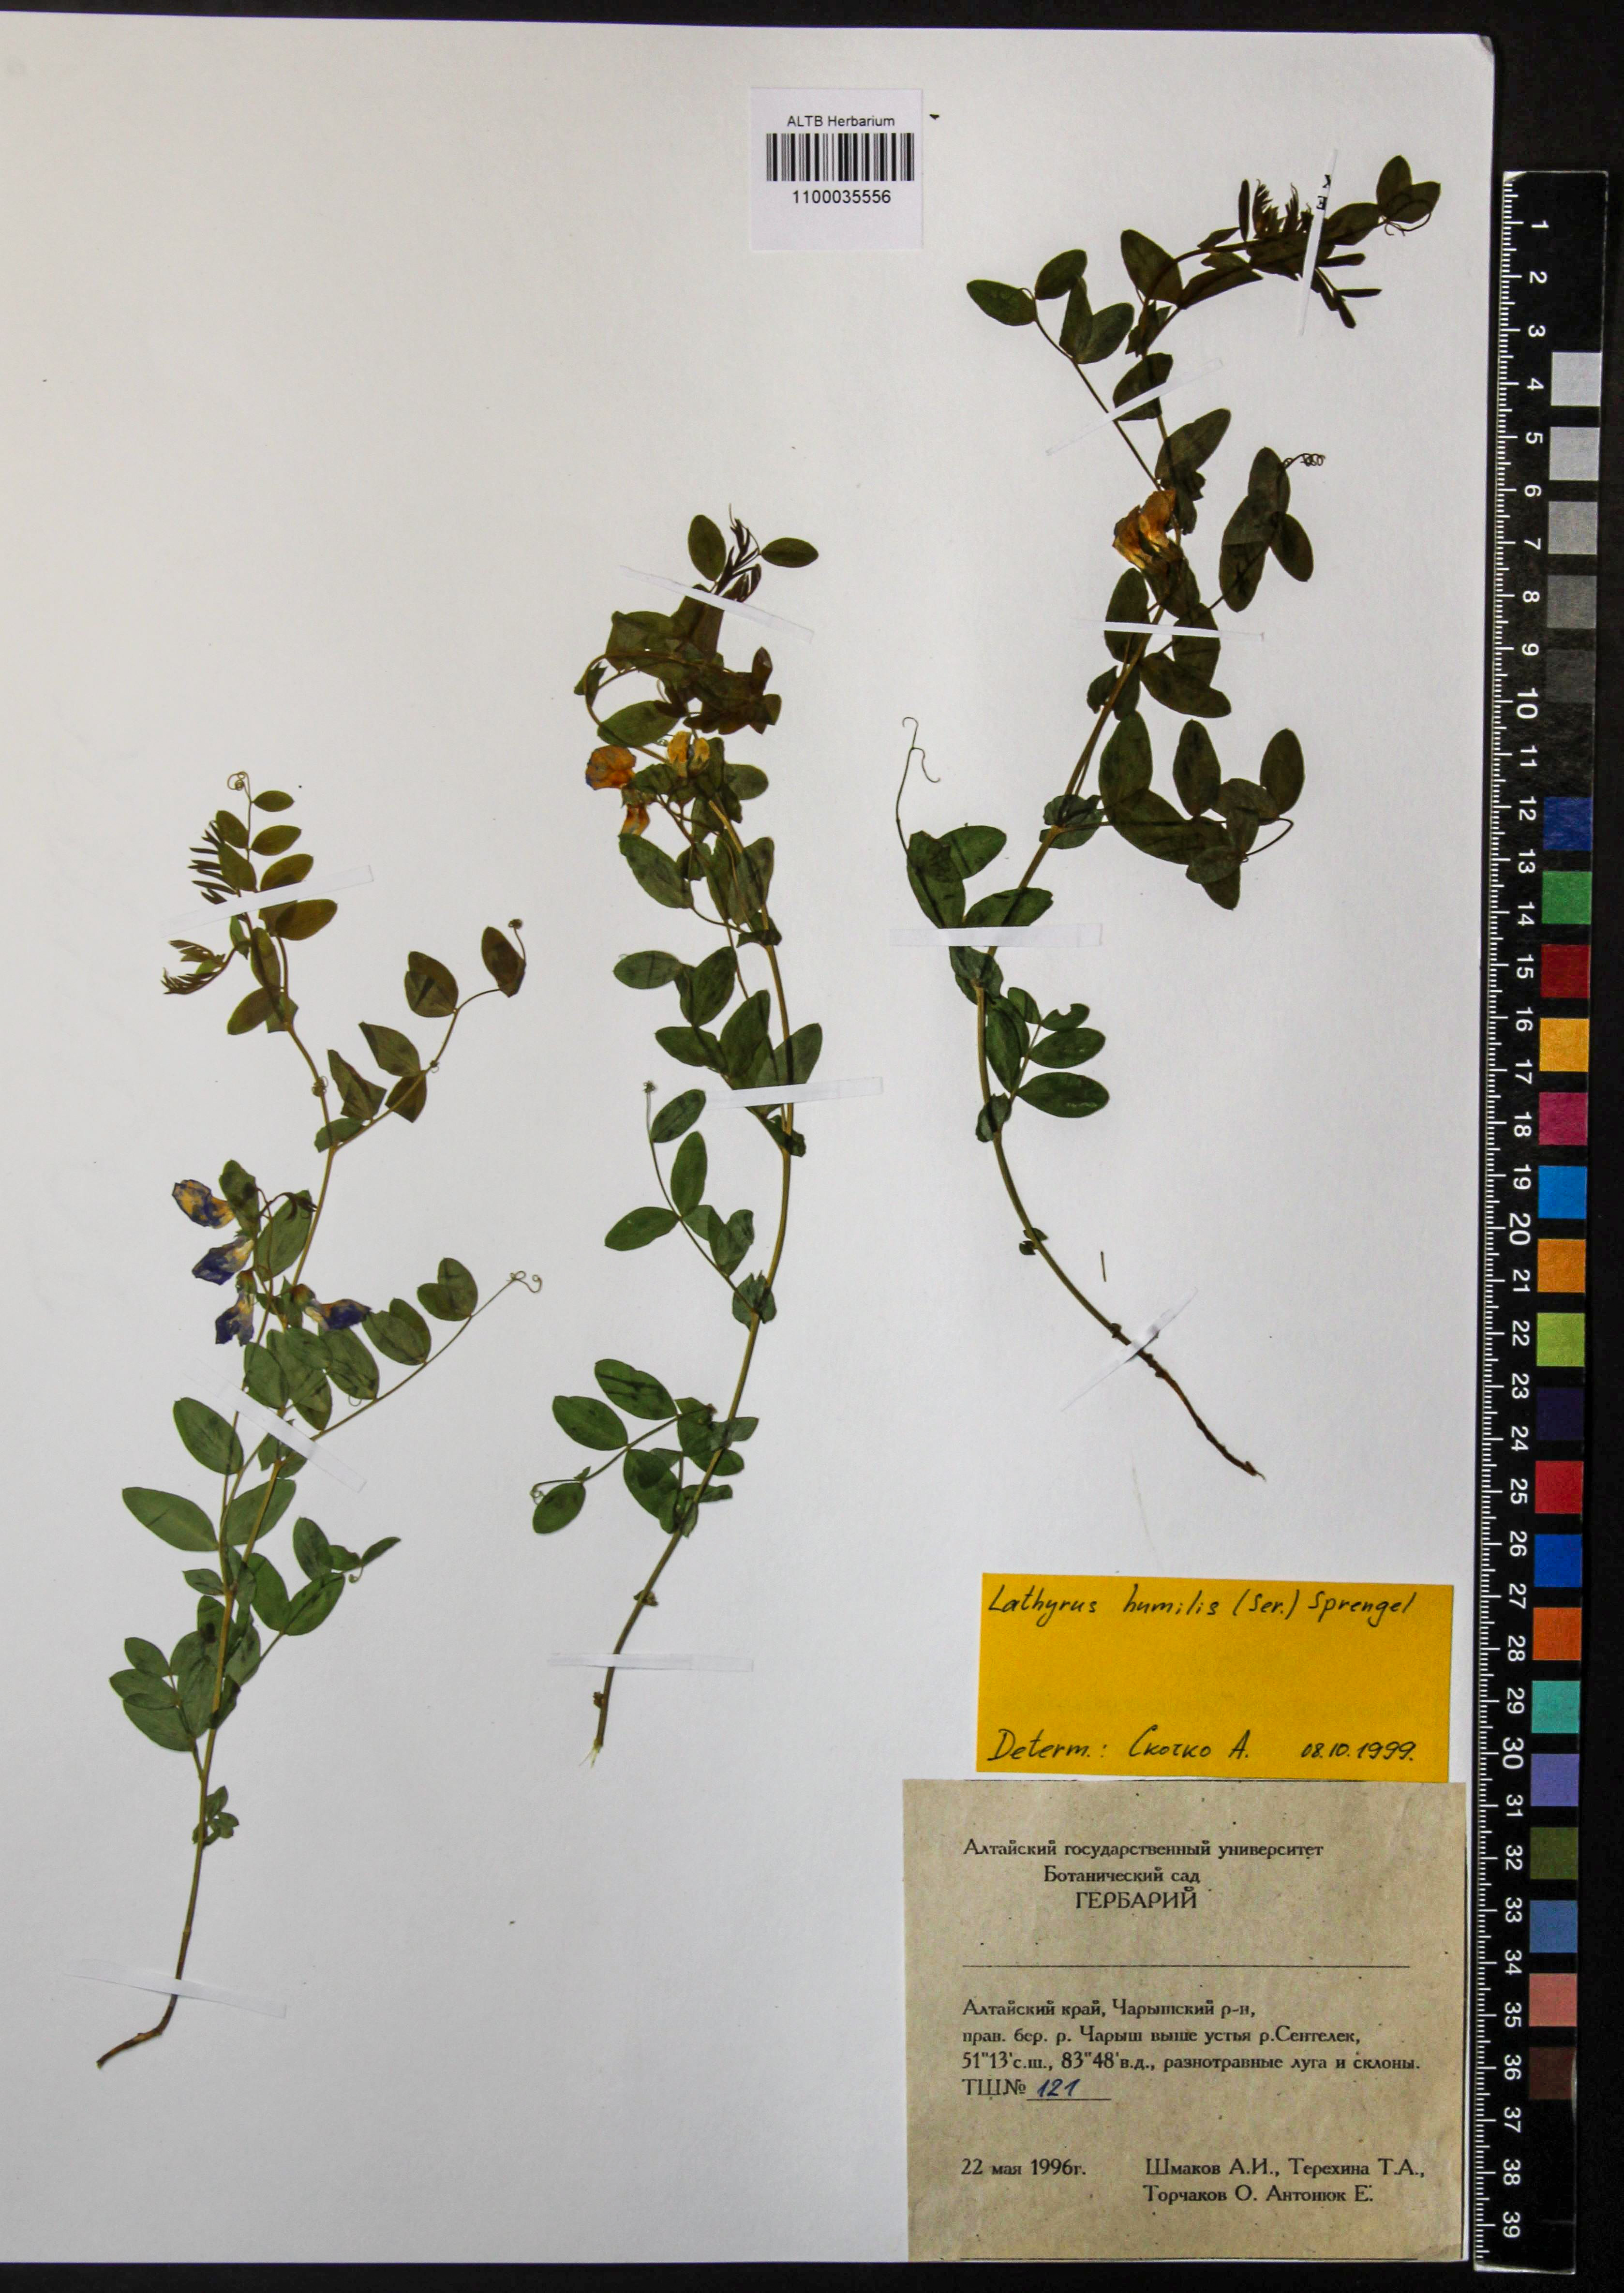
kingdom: Plantae
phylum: Tracheophyta
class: Magnoliopsida
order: Fabales
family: Fabaceae
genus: Lathyrus
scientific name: Lathyrus humilis
